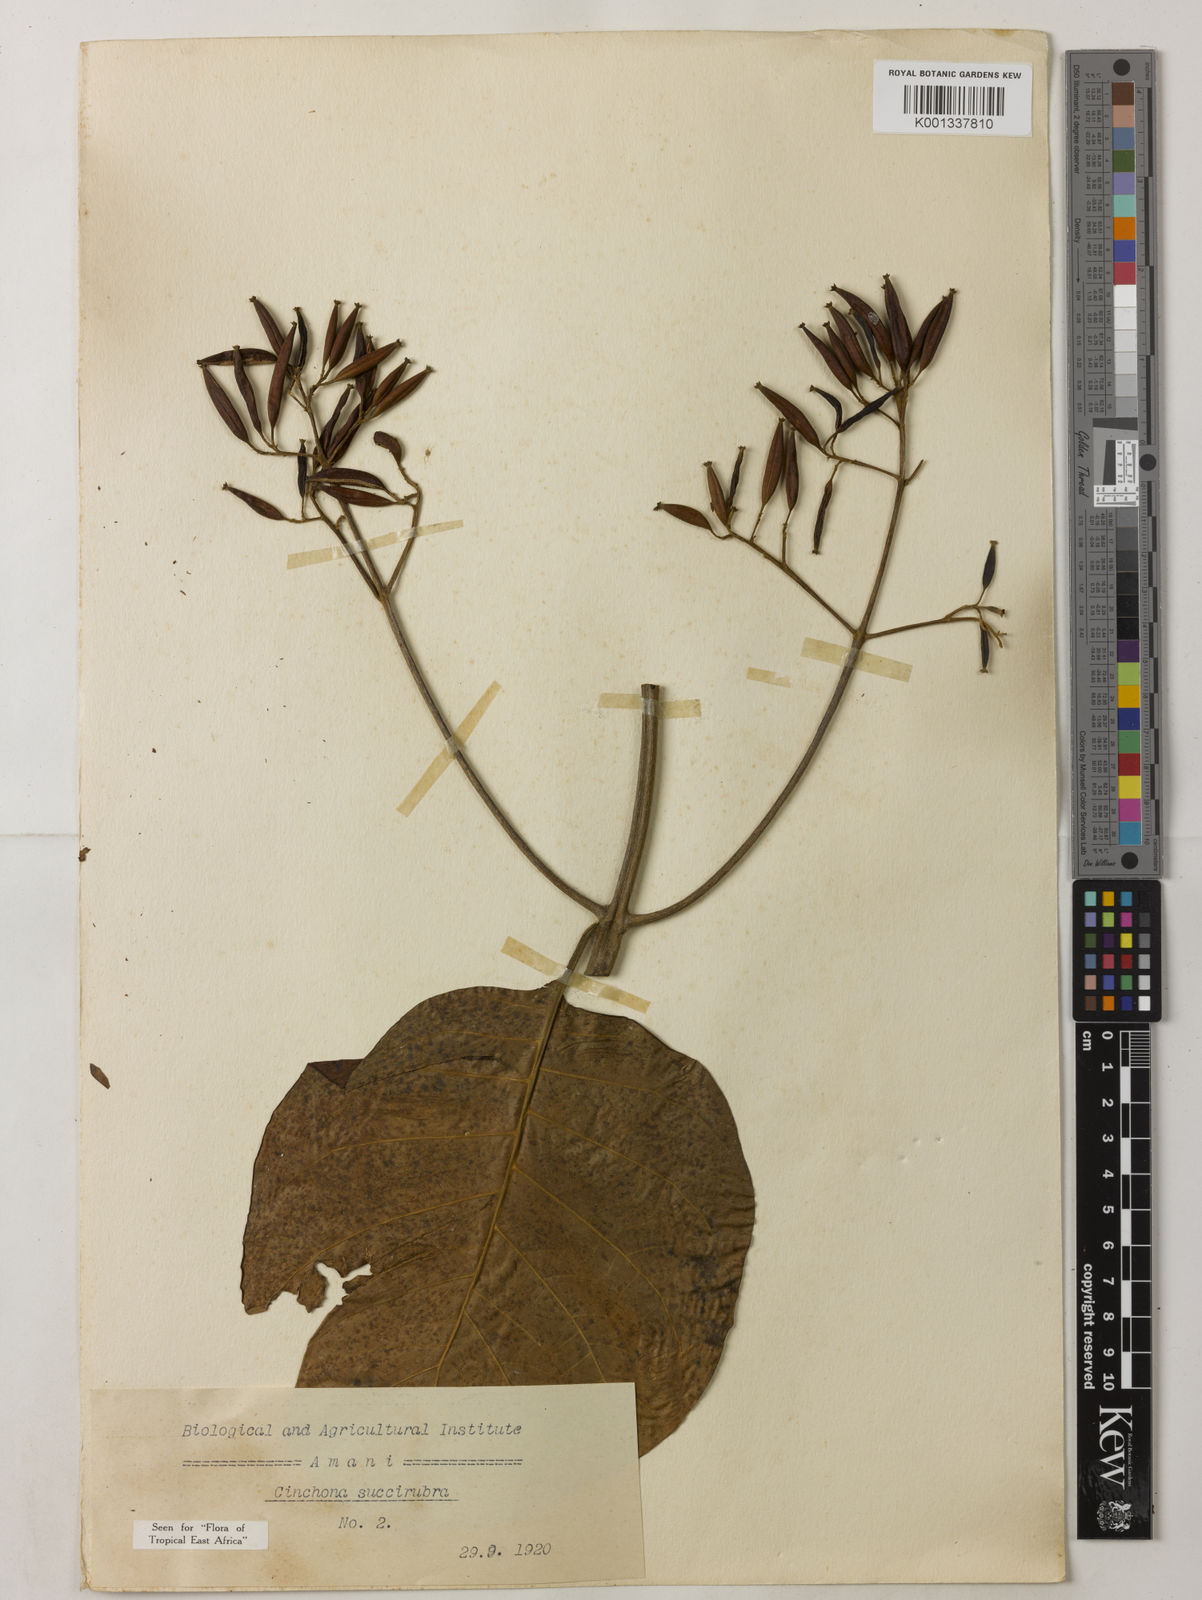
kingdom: Plantae
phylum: Tracheophyta
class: Magnoliopsida
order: Gentianales
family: Rubiaceae
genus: Cinchona
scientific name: Cinchona pubescens
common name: Quinine
